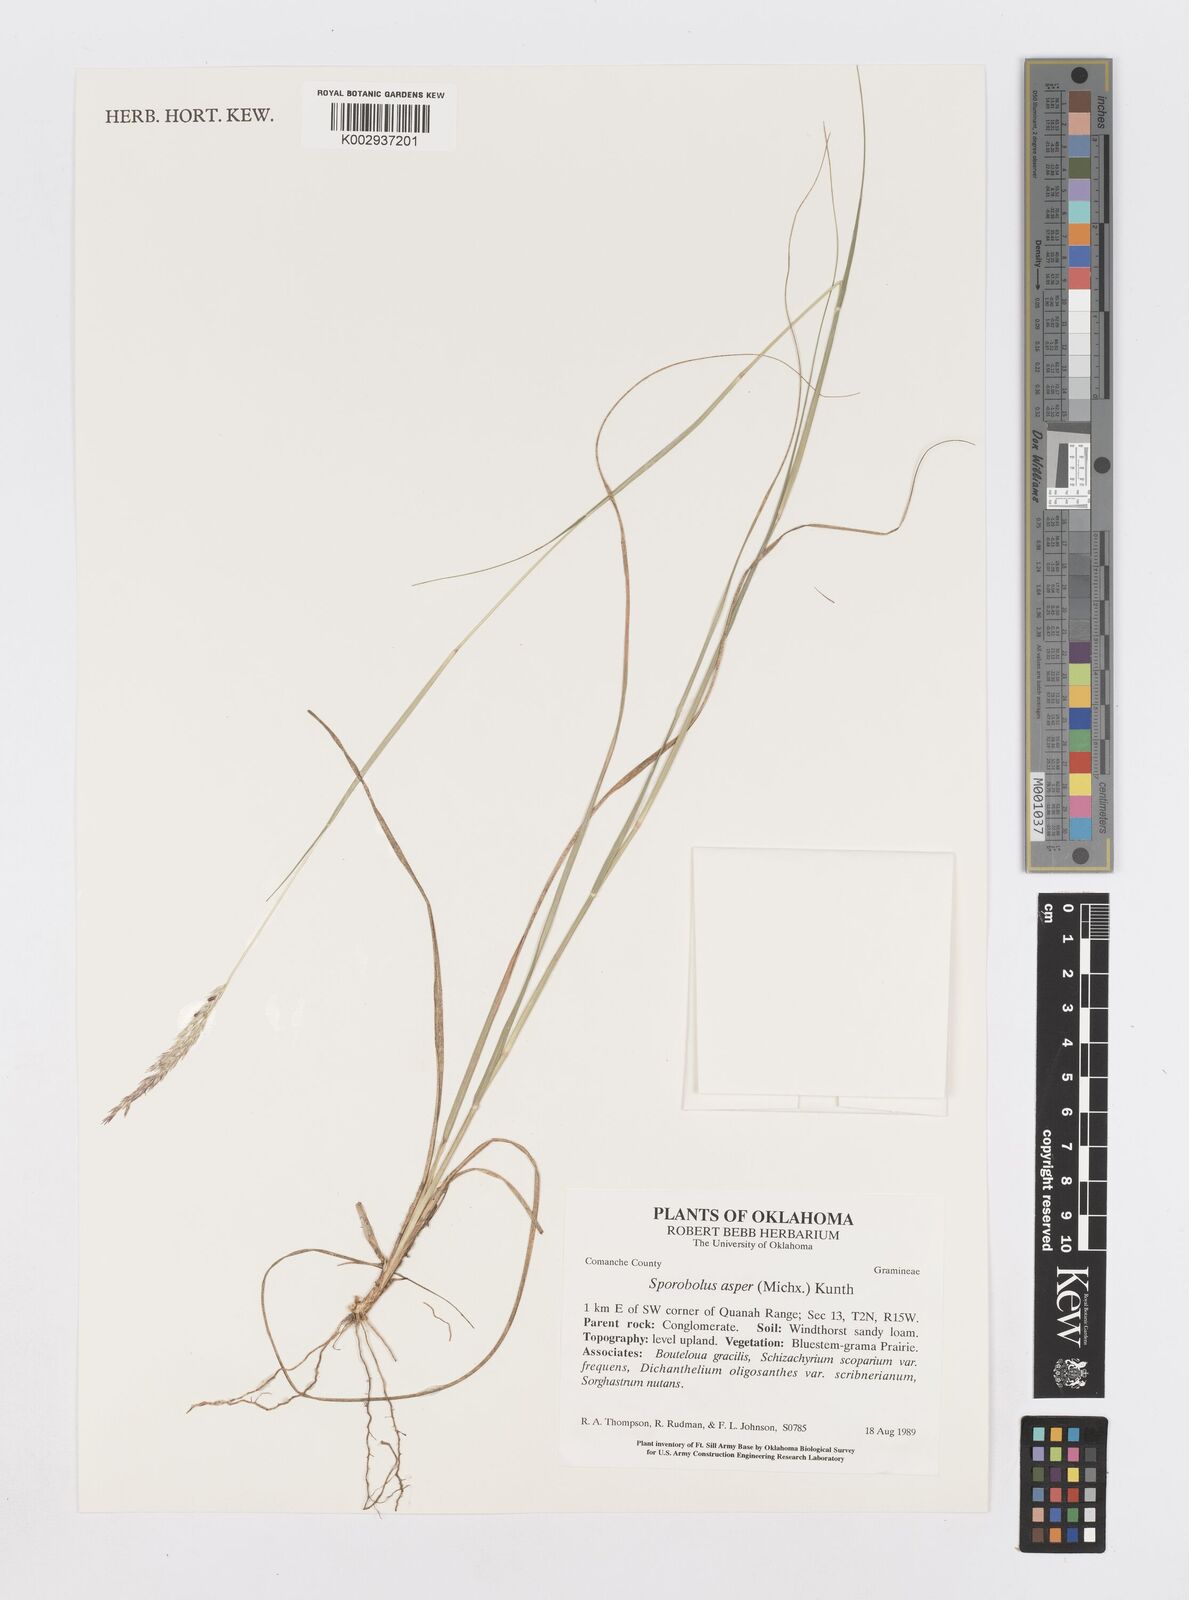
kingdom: Plantae
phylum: Tracheophyta
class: Liliopsida
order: Poales
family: Poaceae
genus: Sporobolus
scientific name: Sporobolus compositus
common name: Rough dropseed
